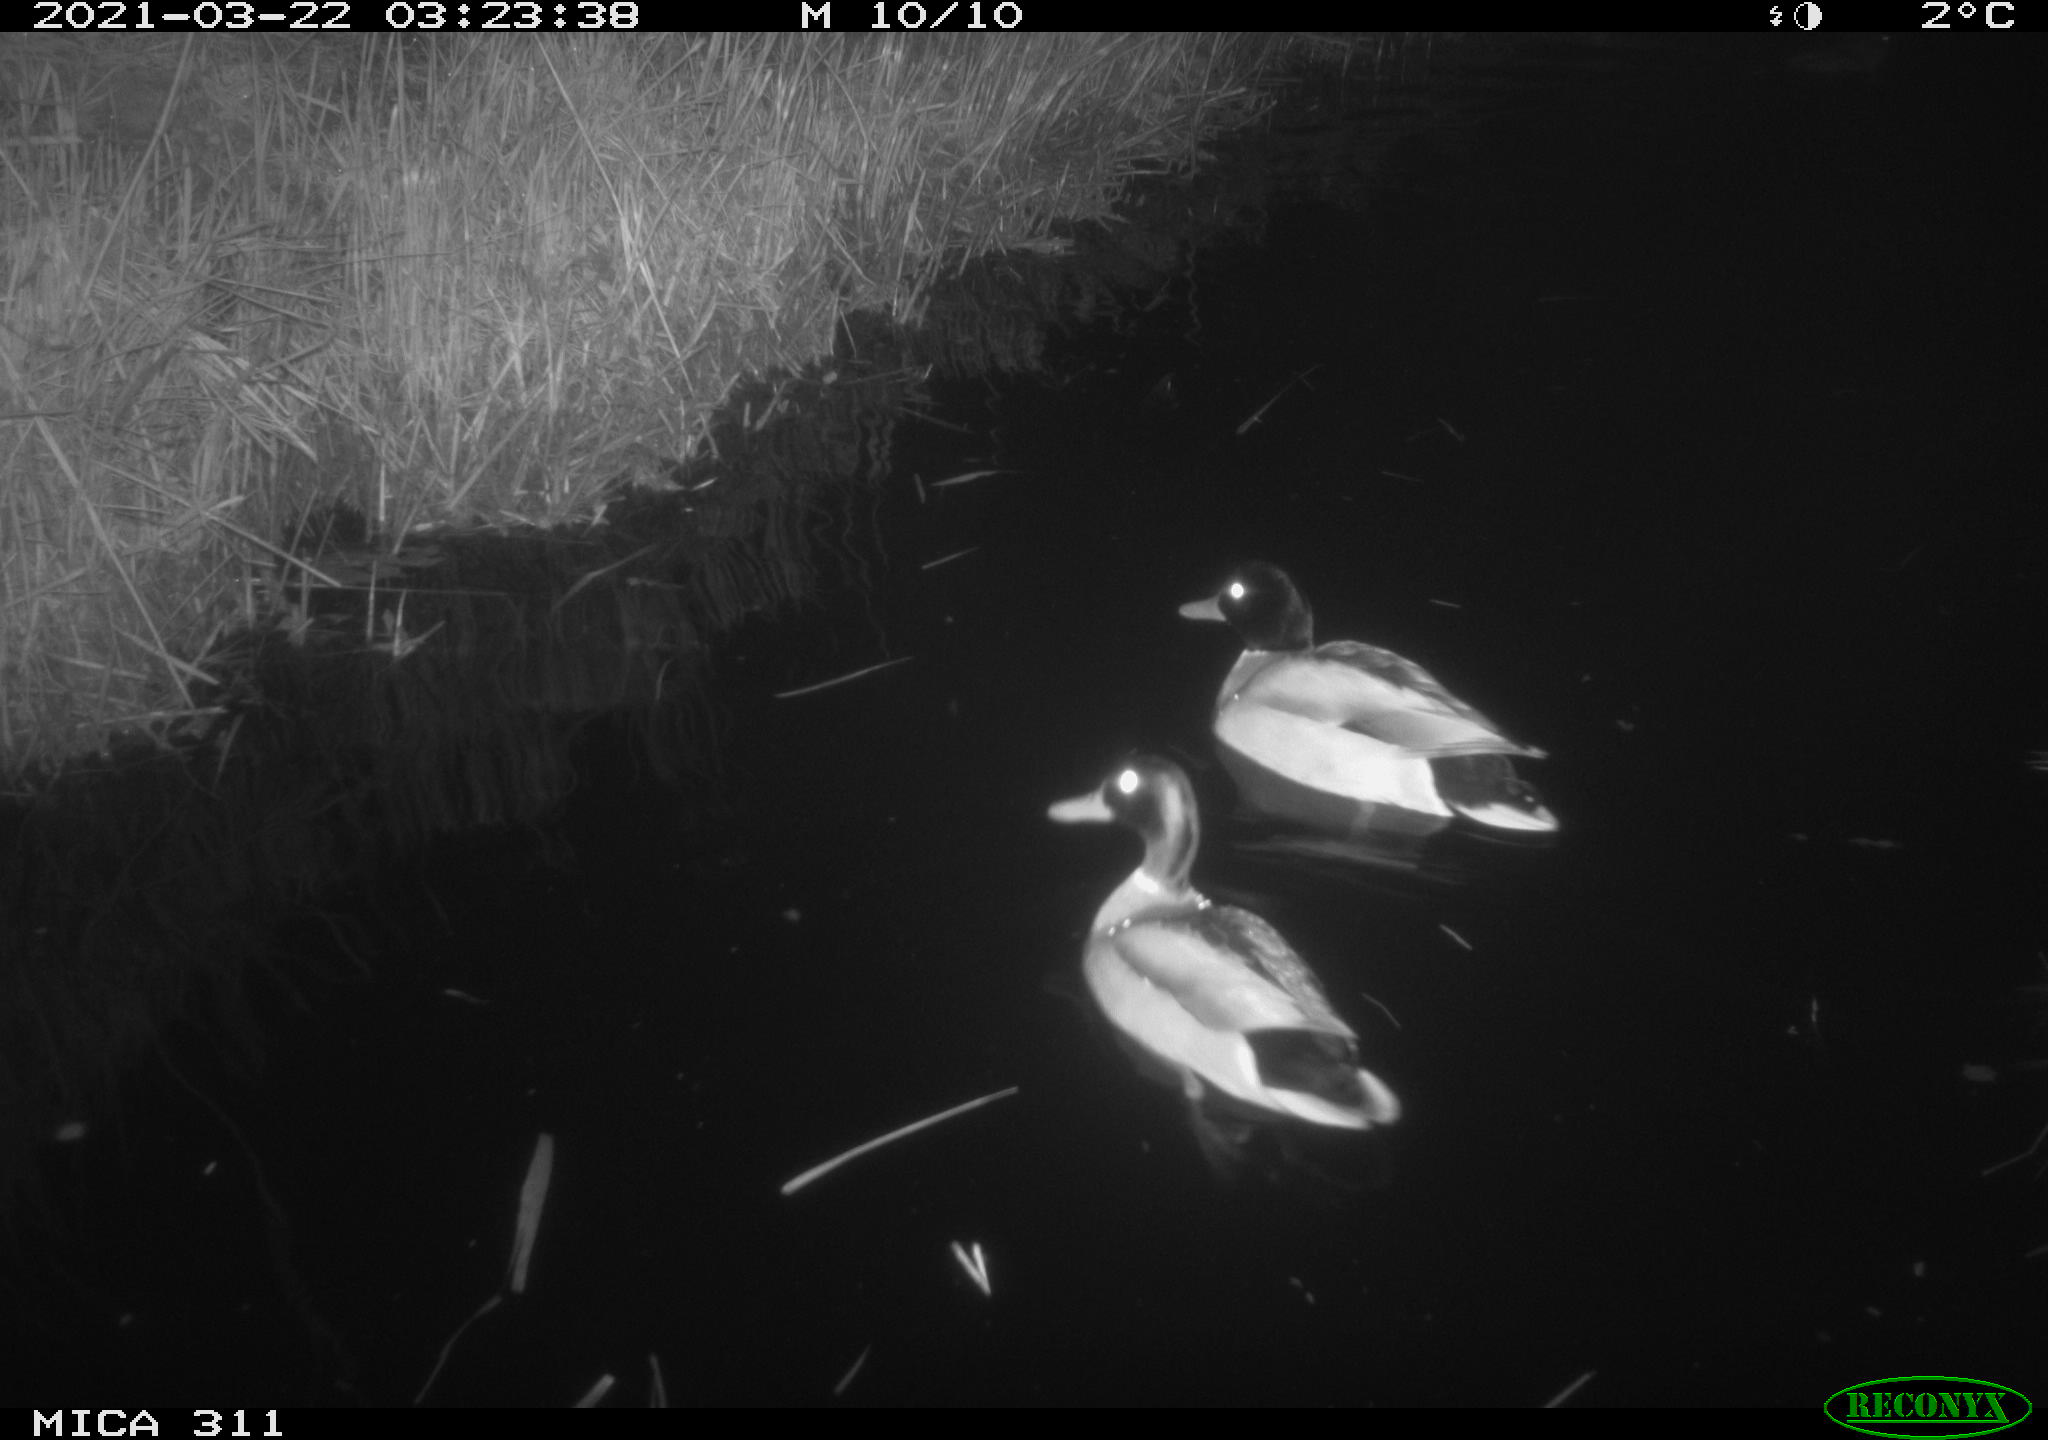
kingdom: Animalia
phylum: Chordata
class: Aves
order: Anseriformes
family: Anatidae
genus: Anas
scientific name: Anas platyrhynchos
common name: Mallard
